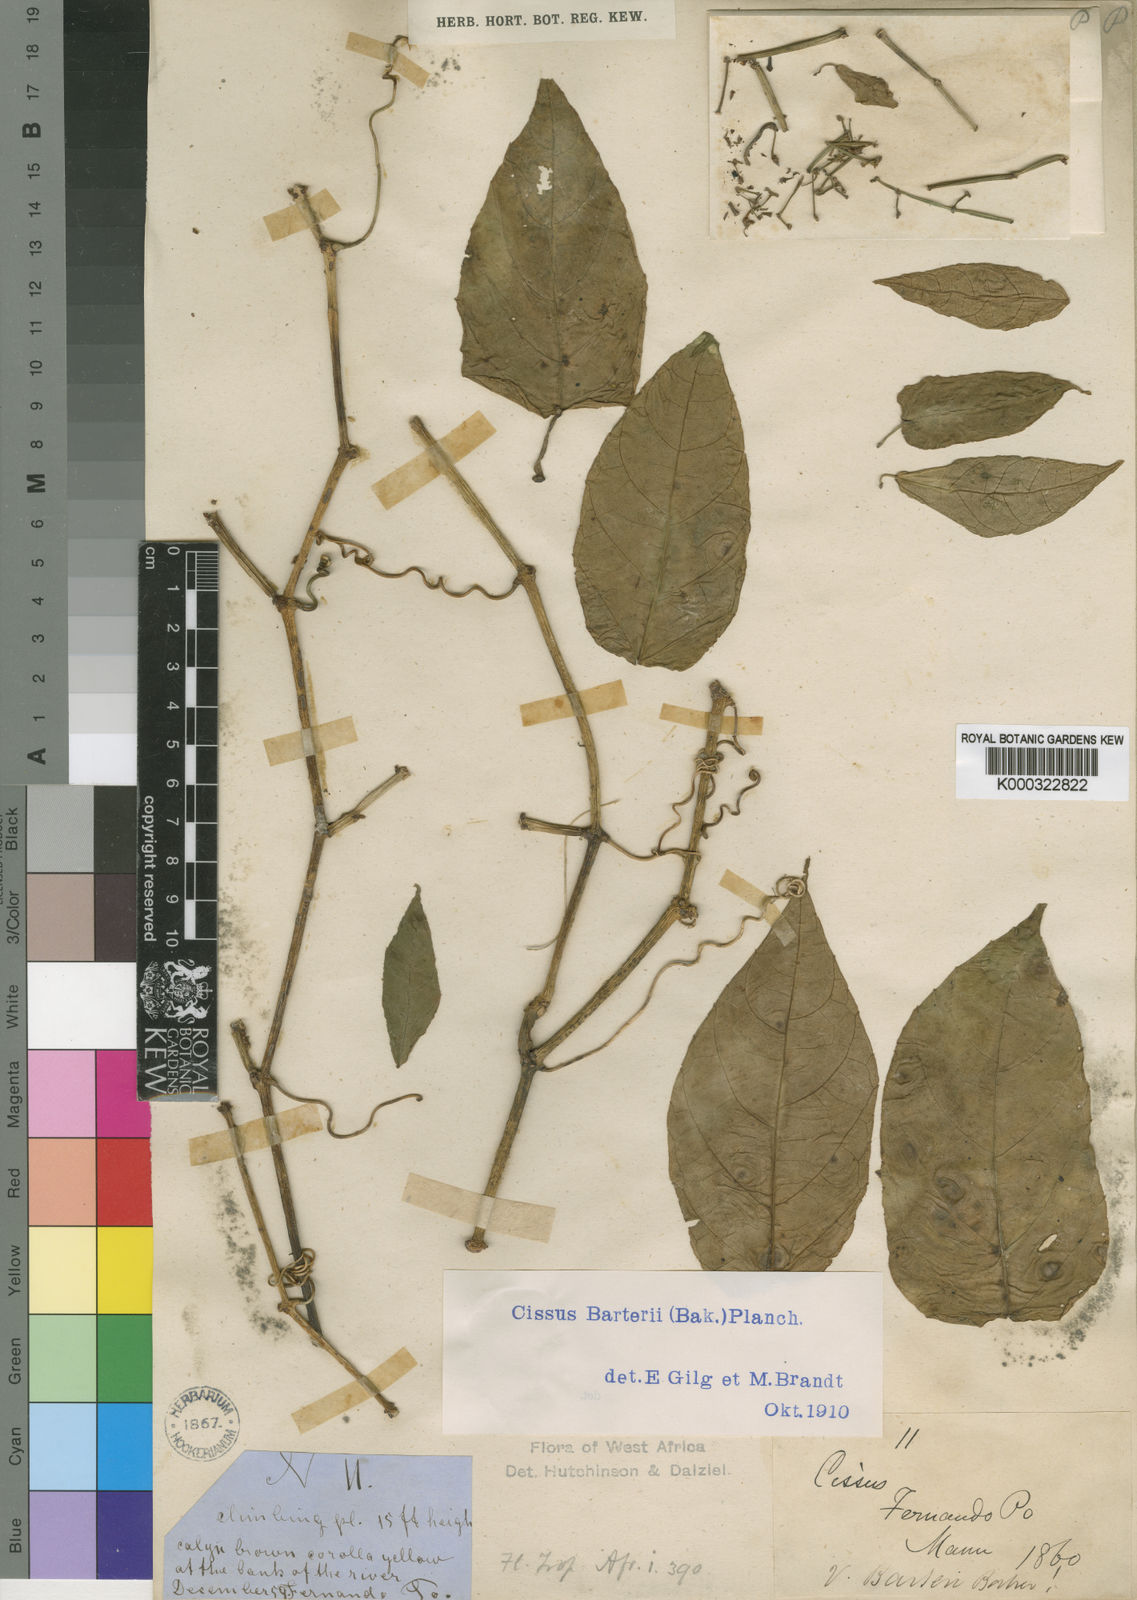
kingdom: Plantae
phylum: Tracheophyta
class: Magnoliopsida
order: Vitales
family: Vitaceae
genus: Cissus
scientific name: Cissus barteri
